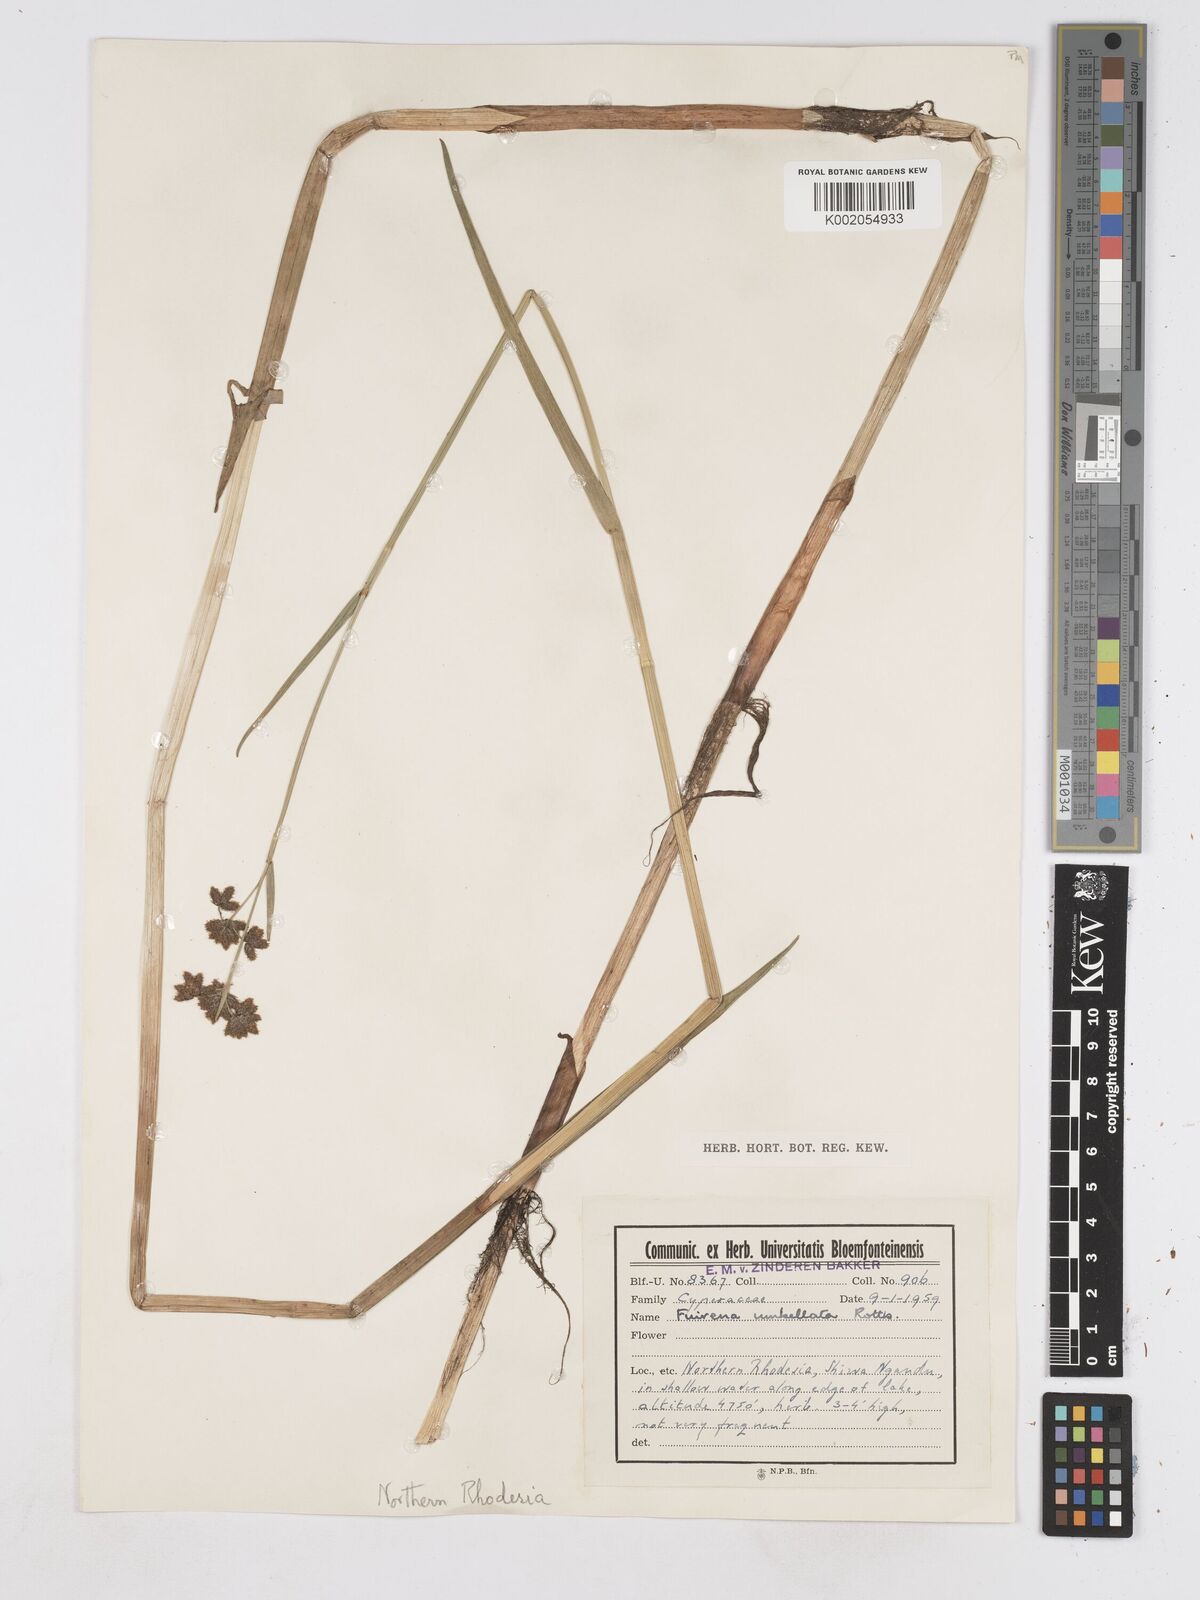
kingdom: Plantae
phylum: Tracheophyta
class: Liliopsida
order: Poales
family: Cyperaceae
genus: Fuirena
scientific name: Fuirena umbellata
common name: Yefen
